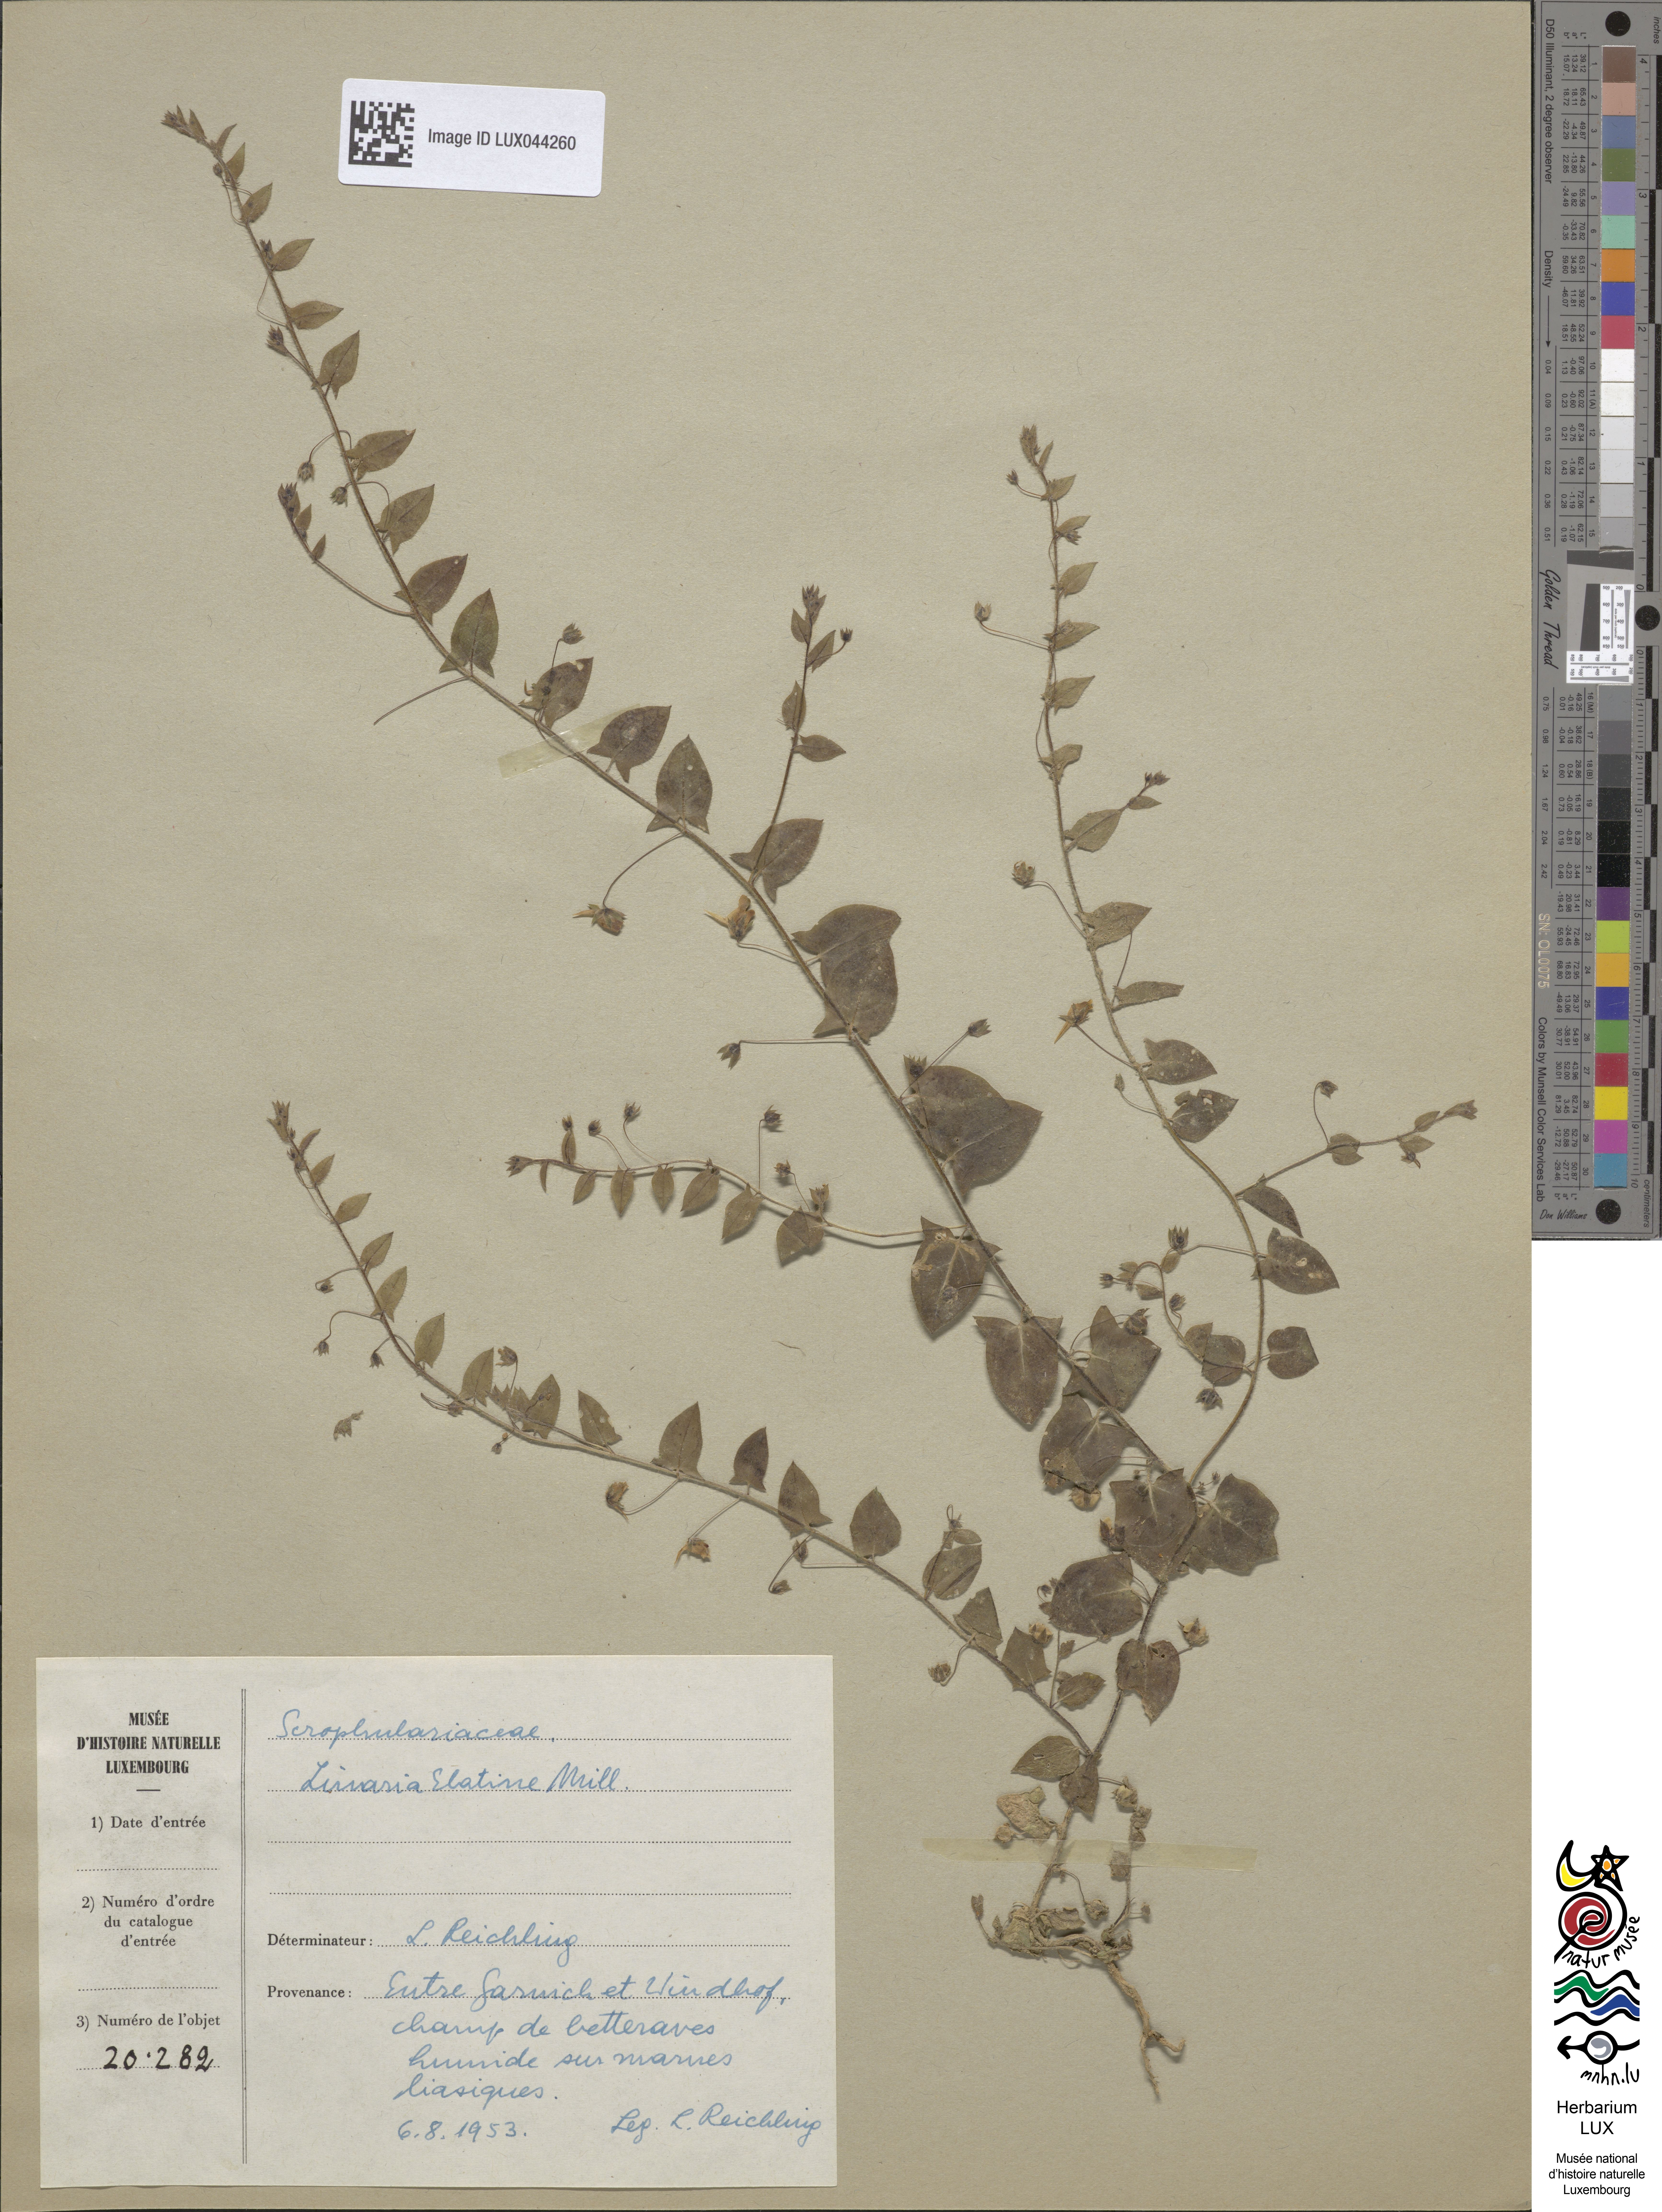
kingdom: Plantae
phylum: Tracheophyta
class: Magnoliopsida
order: Lamiales
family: Plantaginaceae
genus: Kickxia
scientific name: Kickxia elatine
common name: Sharp-leaved fluellen
